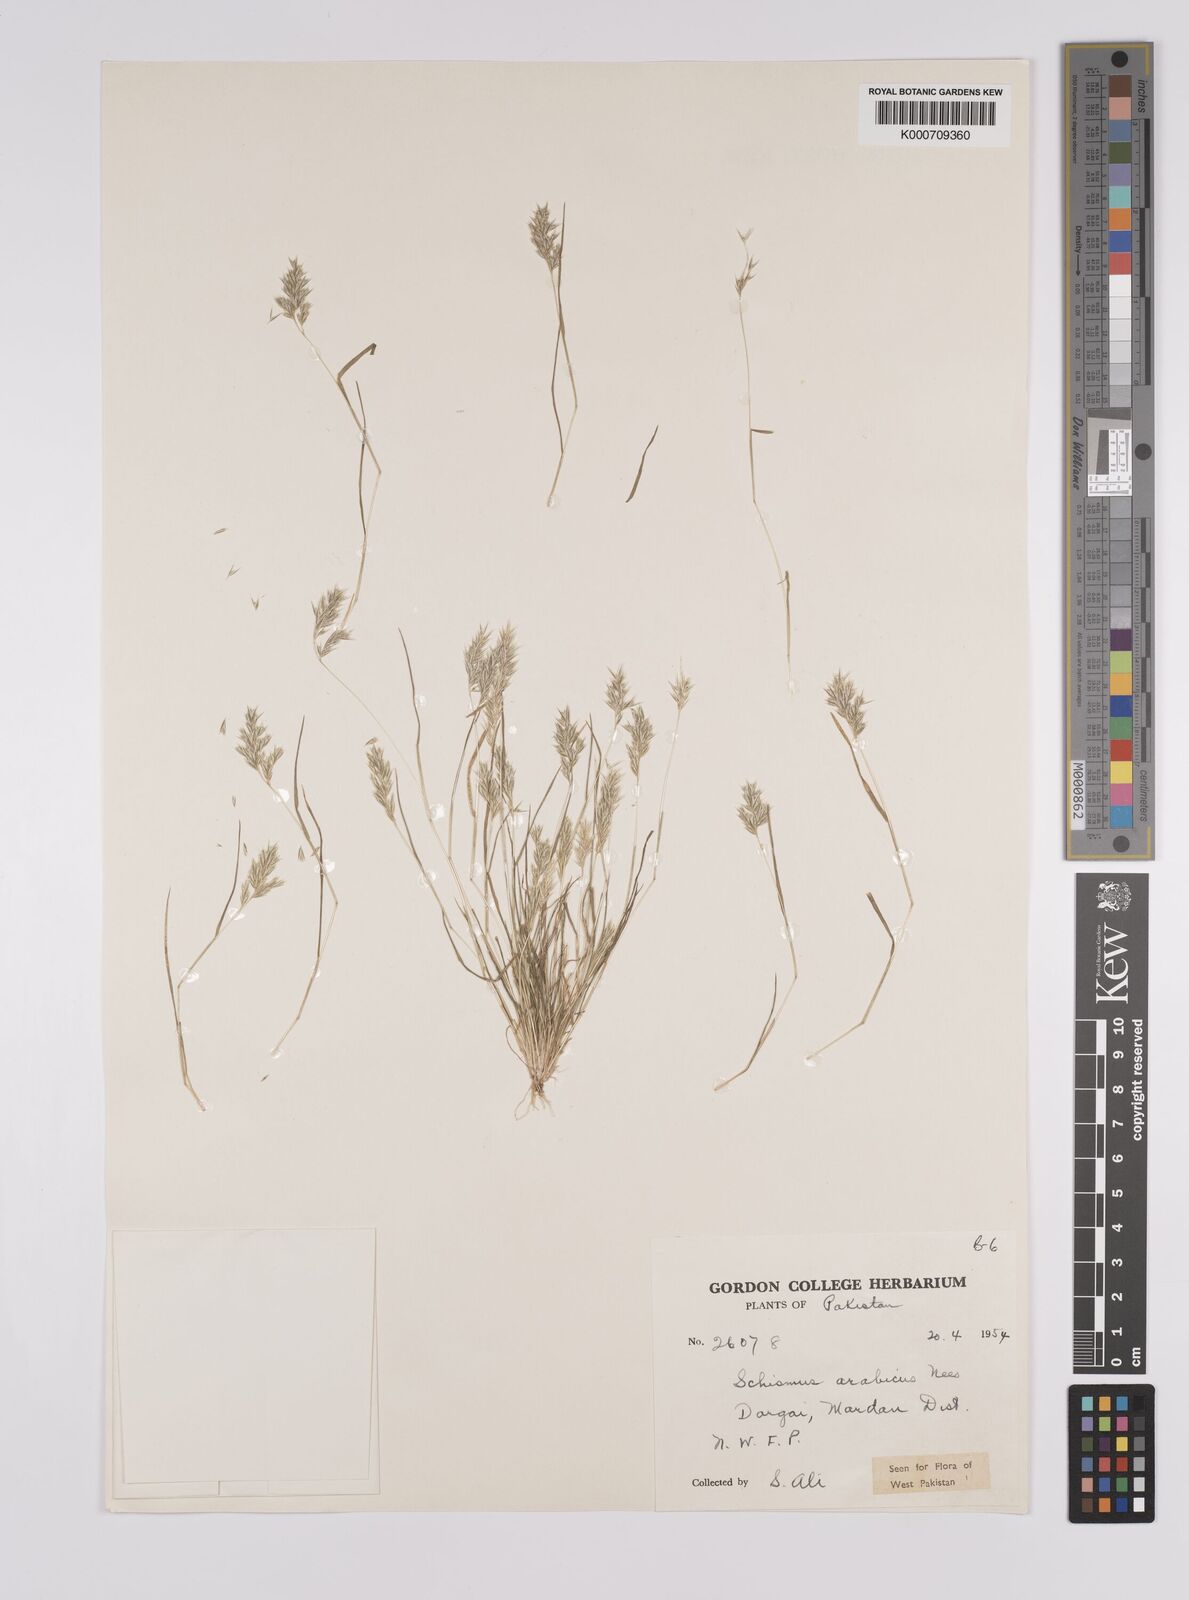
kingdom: Plantae
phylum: Tracheophyta
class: Liliopsida
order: Poales
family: Poaceae
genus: Schismus
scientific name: Schismus arabicus
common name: Arabian schismus
